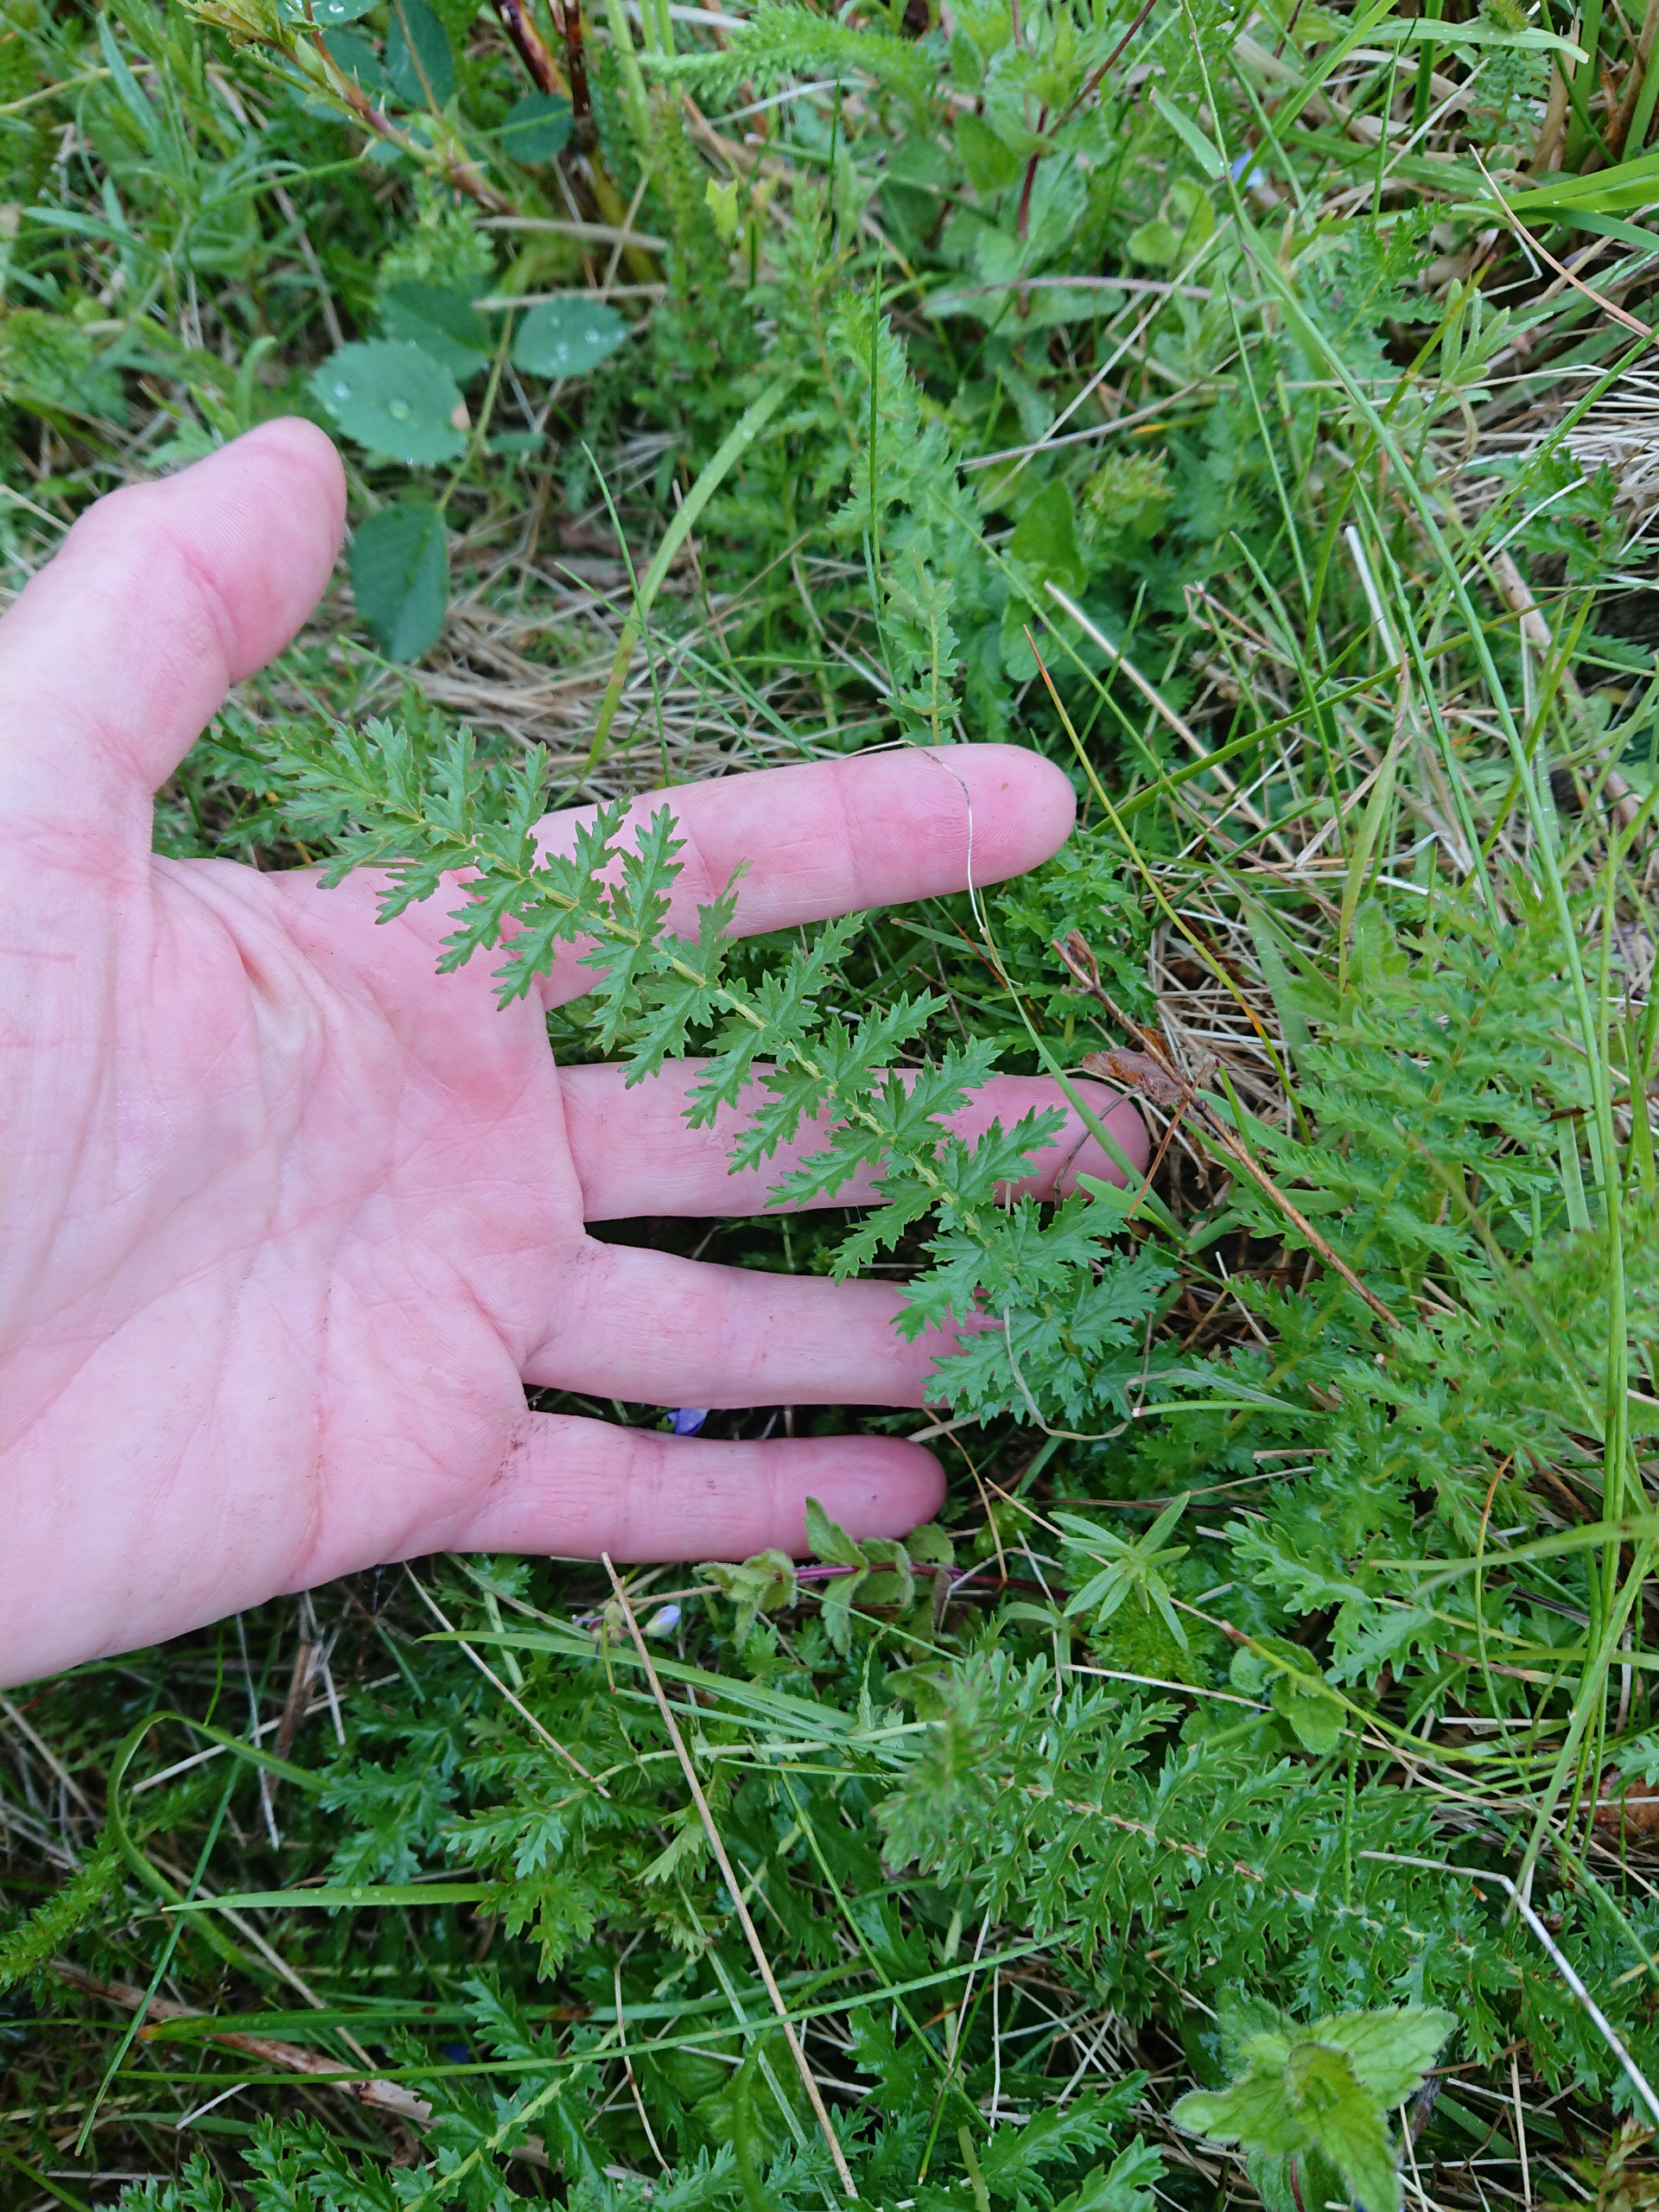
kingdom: Plantae
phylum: Tracheophyta
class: Magnoliopsida
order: Rosales
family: Rosaceae
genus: Filipendula
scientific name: Filipendula vulgaris
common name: Knoldet mjødurt
